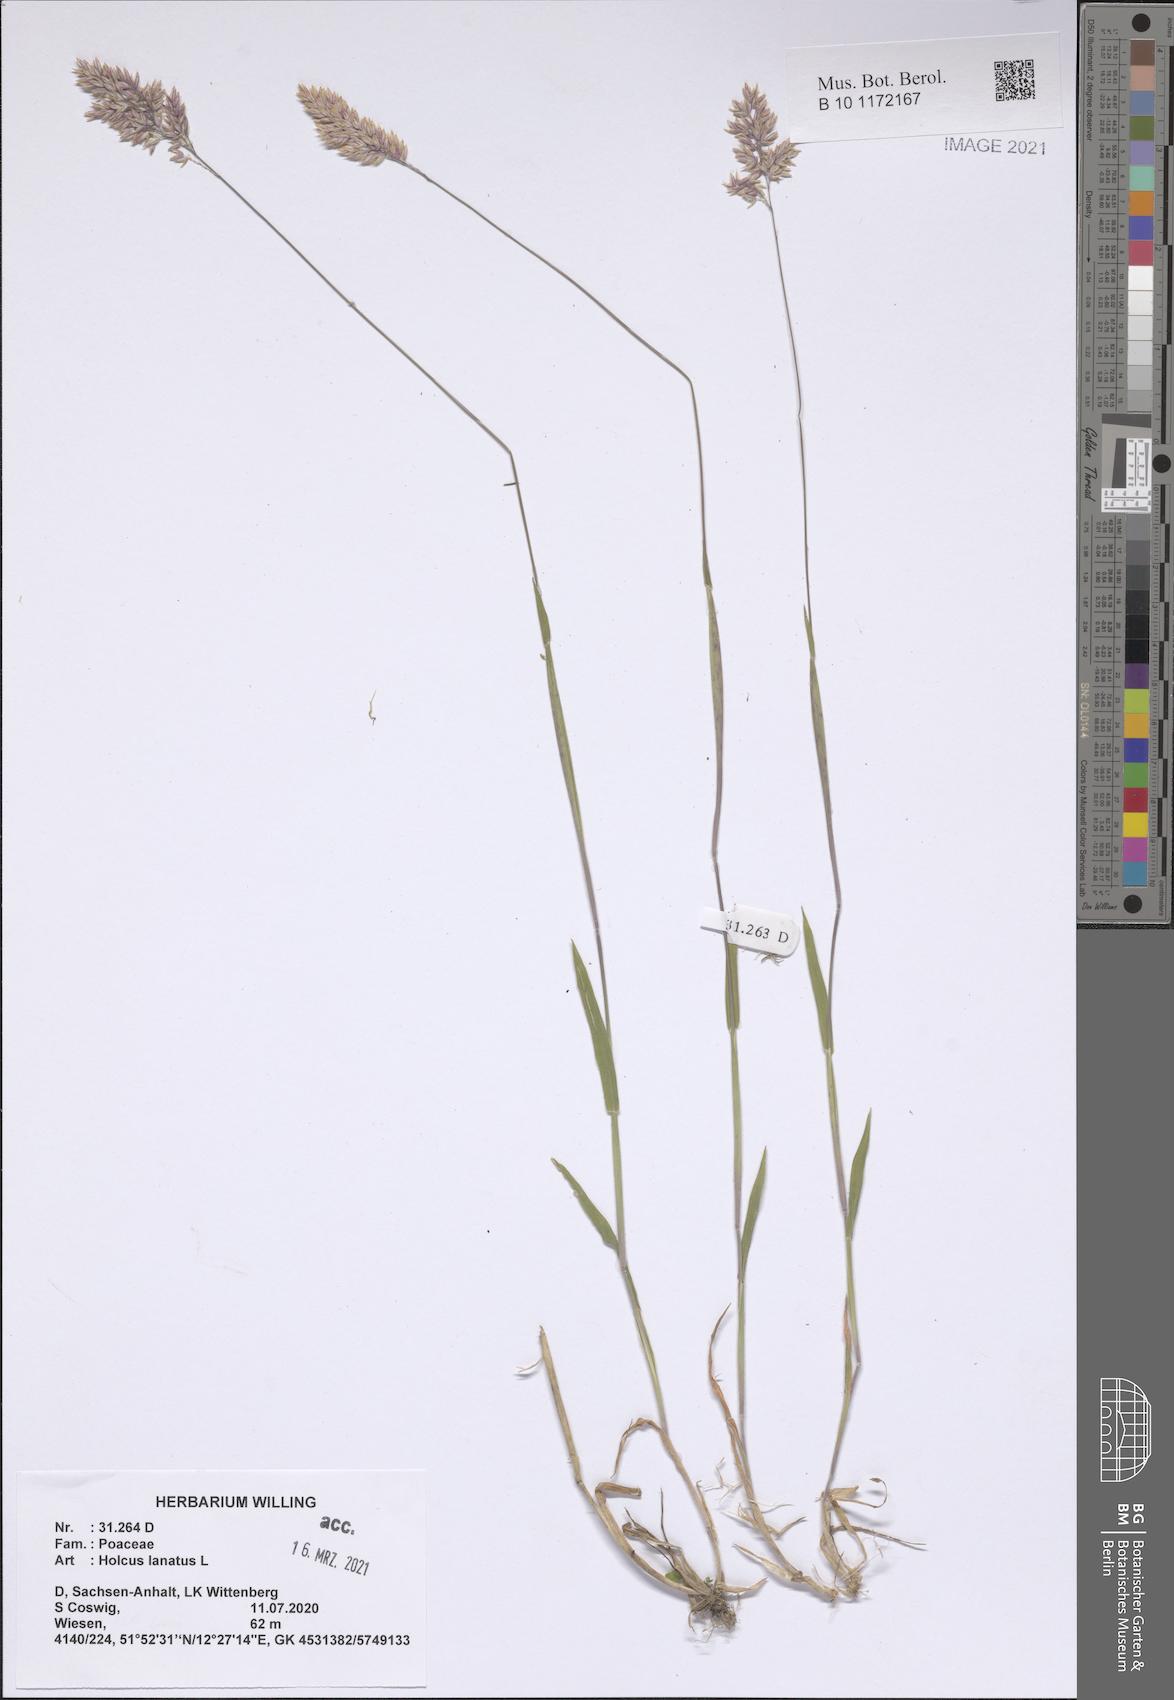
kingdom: Plantae
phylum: Tracheophyta
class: Liliopsida
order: Poales
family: Poaceae
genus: Holcus
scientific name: Holcus lanatus
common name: Yorkshire-fog
